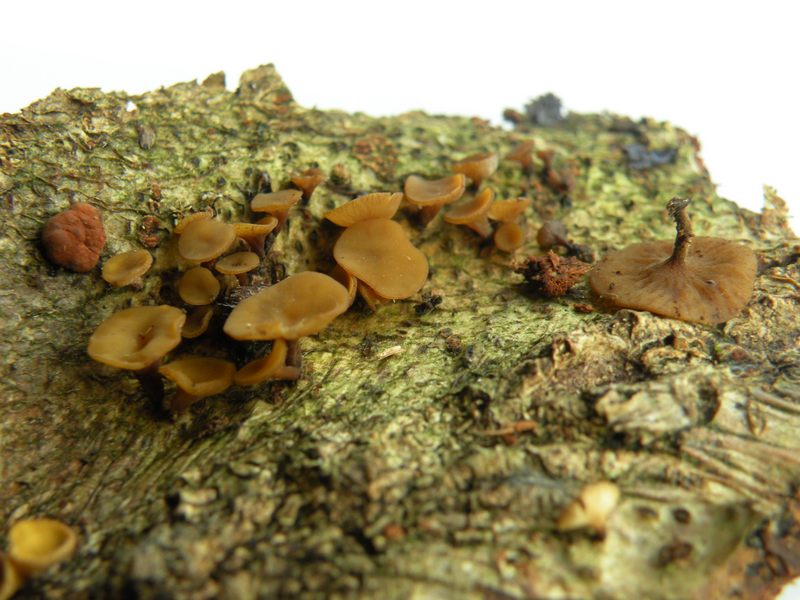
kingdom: Fungi
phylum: Ascomycota
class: Leotiomycetes
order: Helotiales
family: Rutstroemiaceae
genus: Rutstroemia
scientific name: Rutstroemia firma
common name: gren-brunskive
